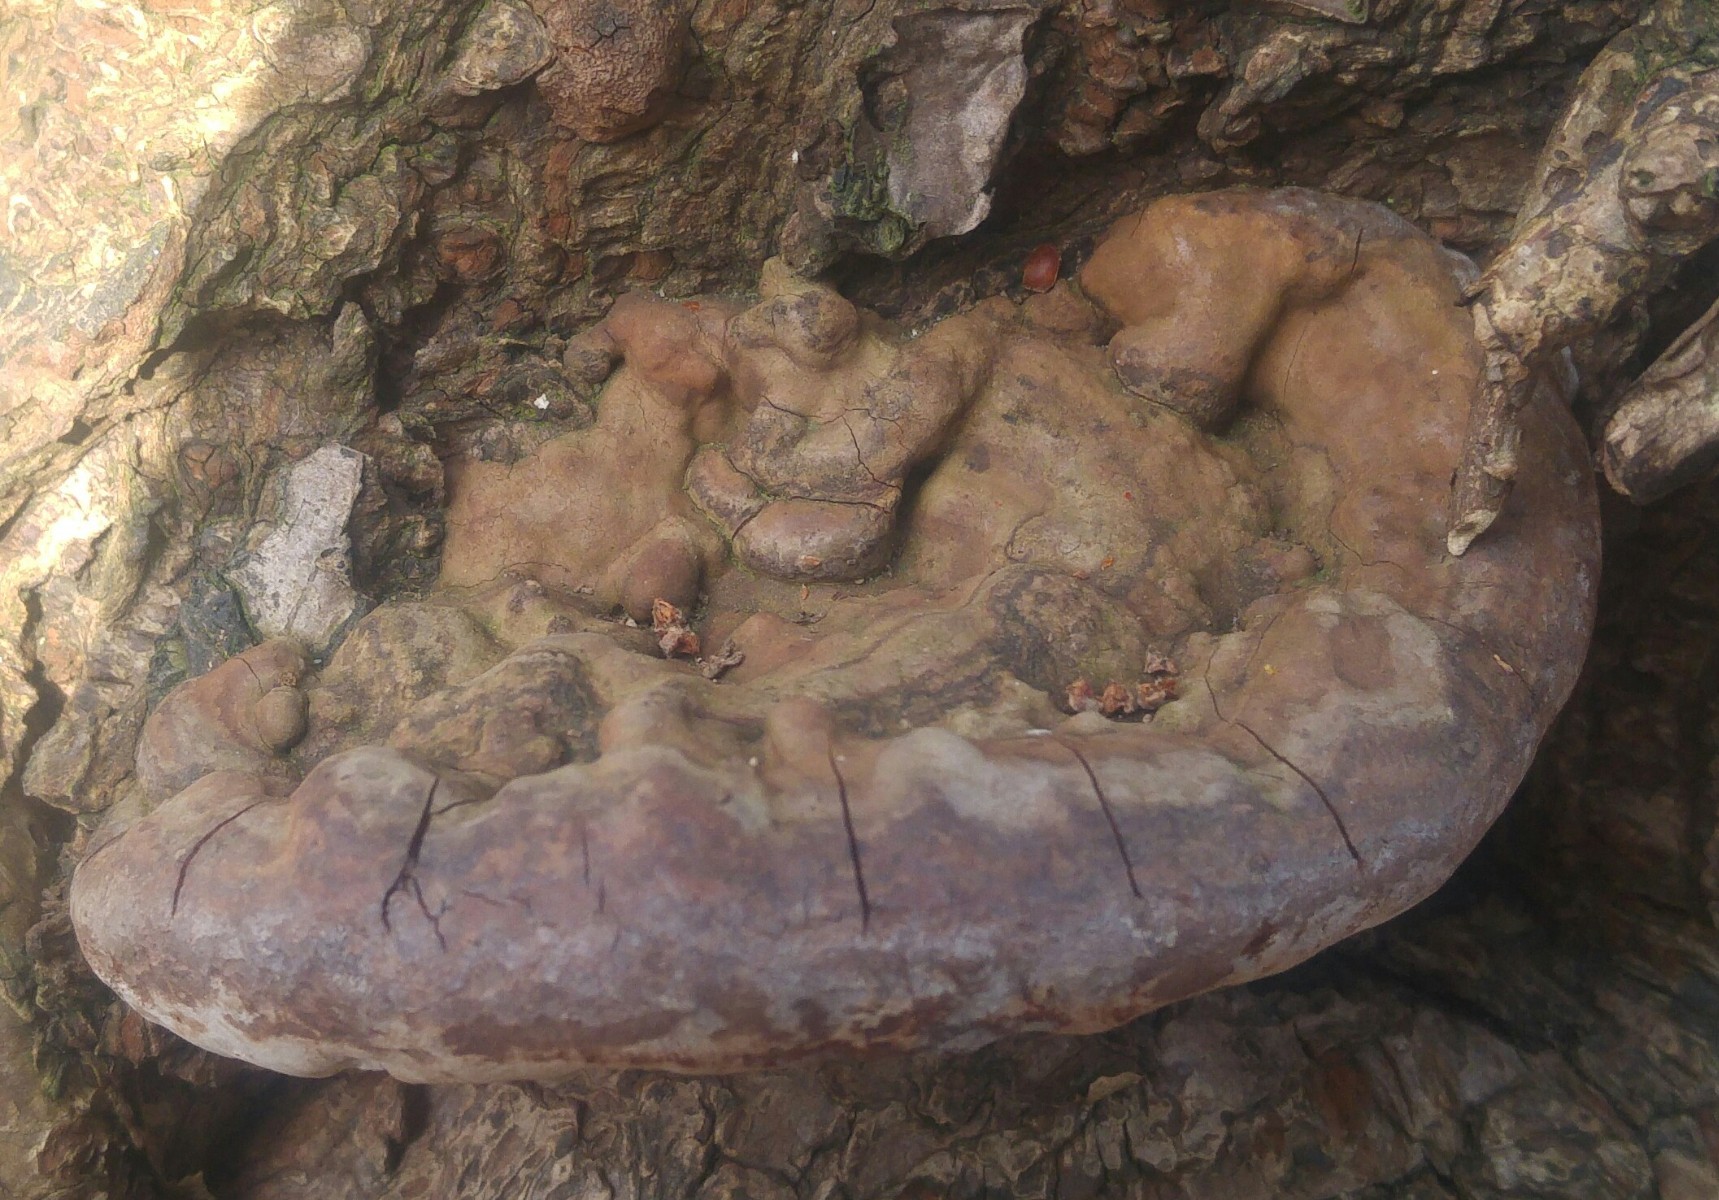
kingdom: Fungi
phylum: Basidiomycota
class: Agaricomycetes
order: Polyporales
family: Polyporaceae
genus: Ganoderma
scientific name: Ganoderma pfeifferi
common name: kobberrød lakporesvamp
